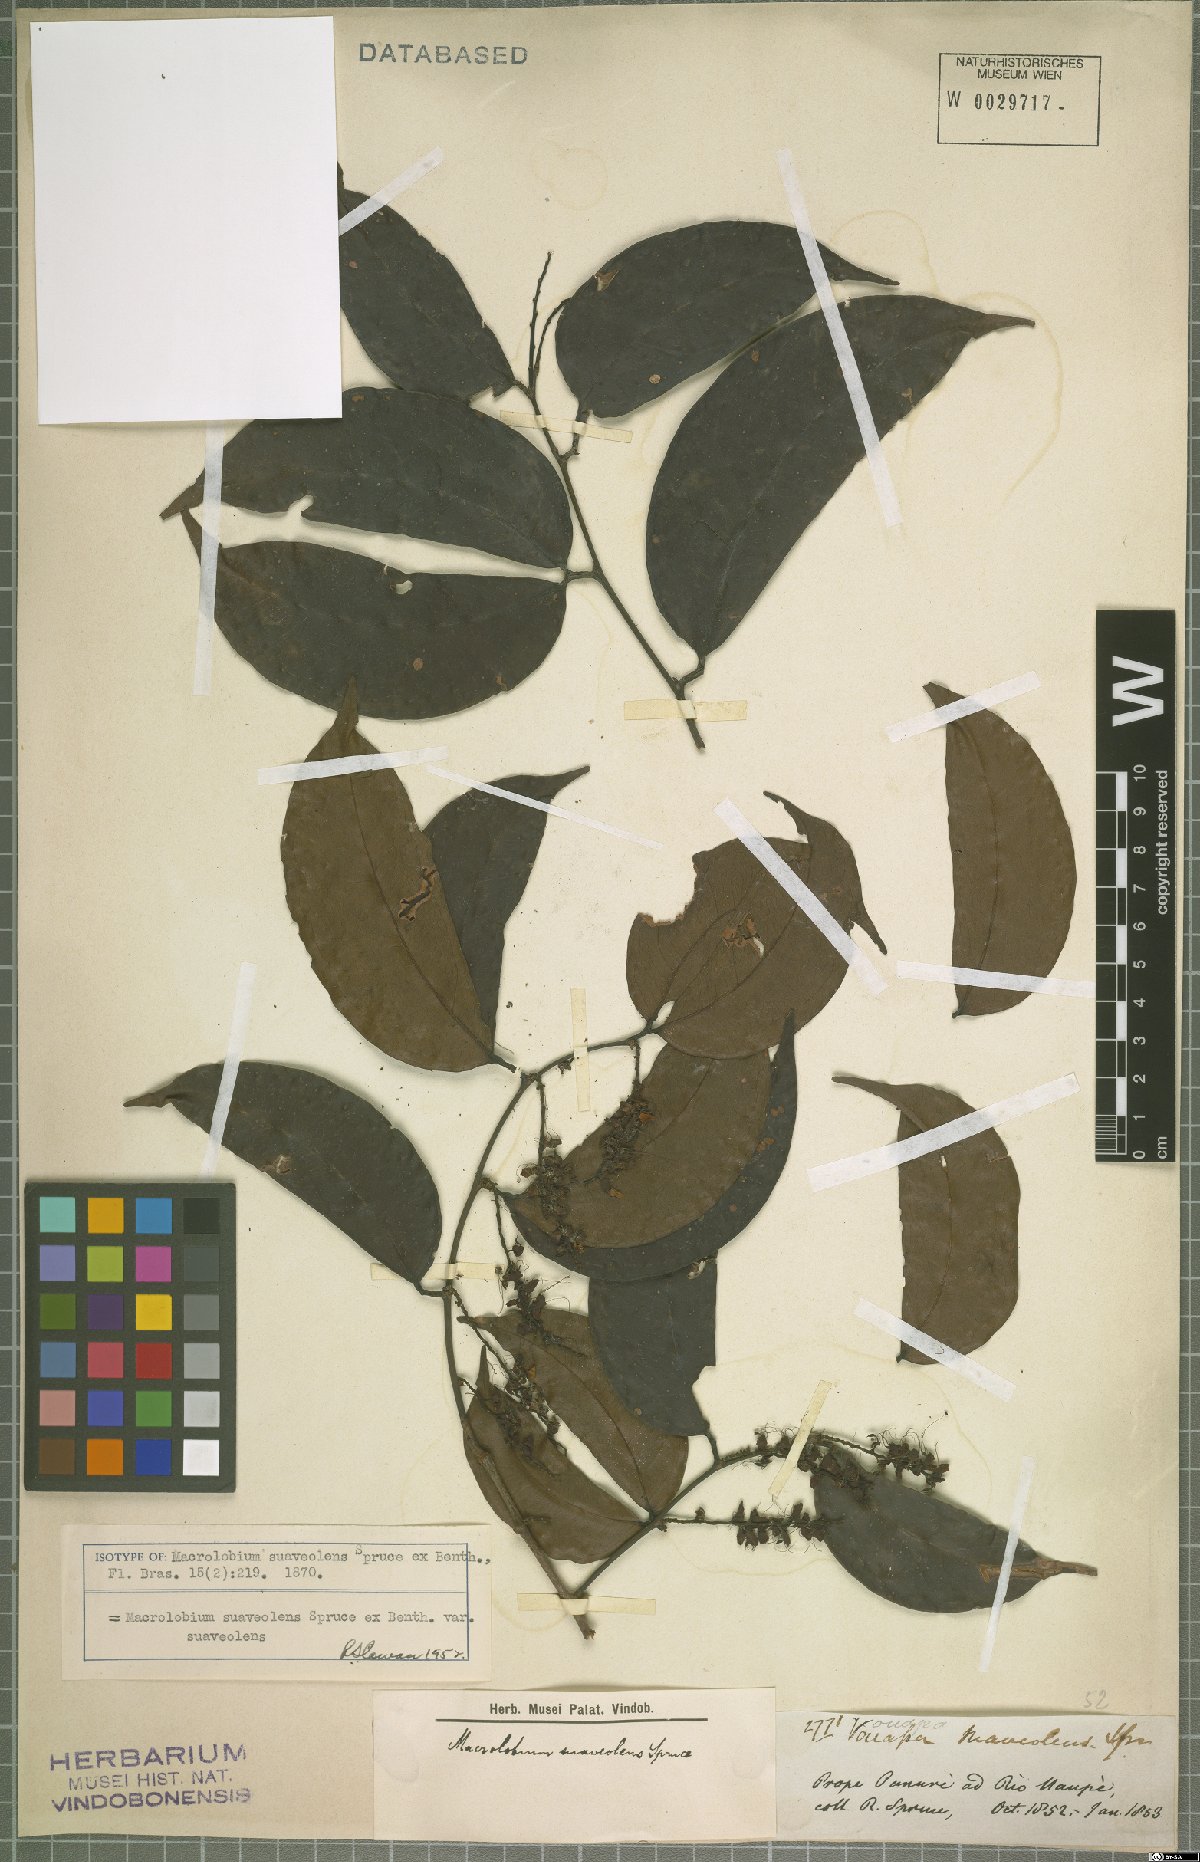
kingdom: Plantae
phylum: Tracheophyta
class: Magnoliopsida
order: Fabales
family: Fabaceae
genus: Macrolobium
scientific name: Macrolobium suaveolens
